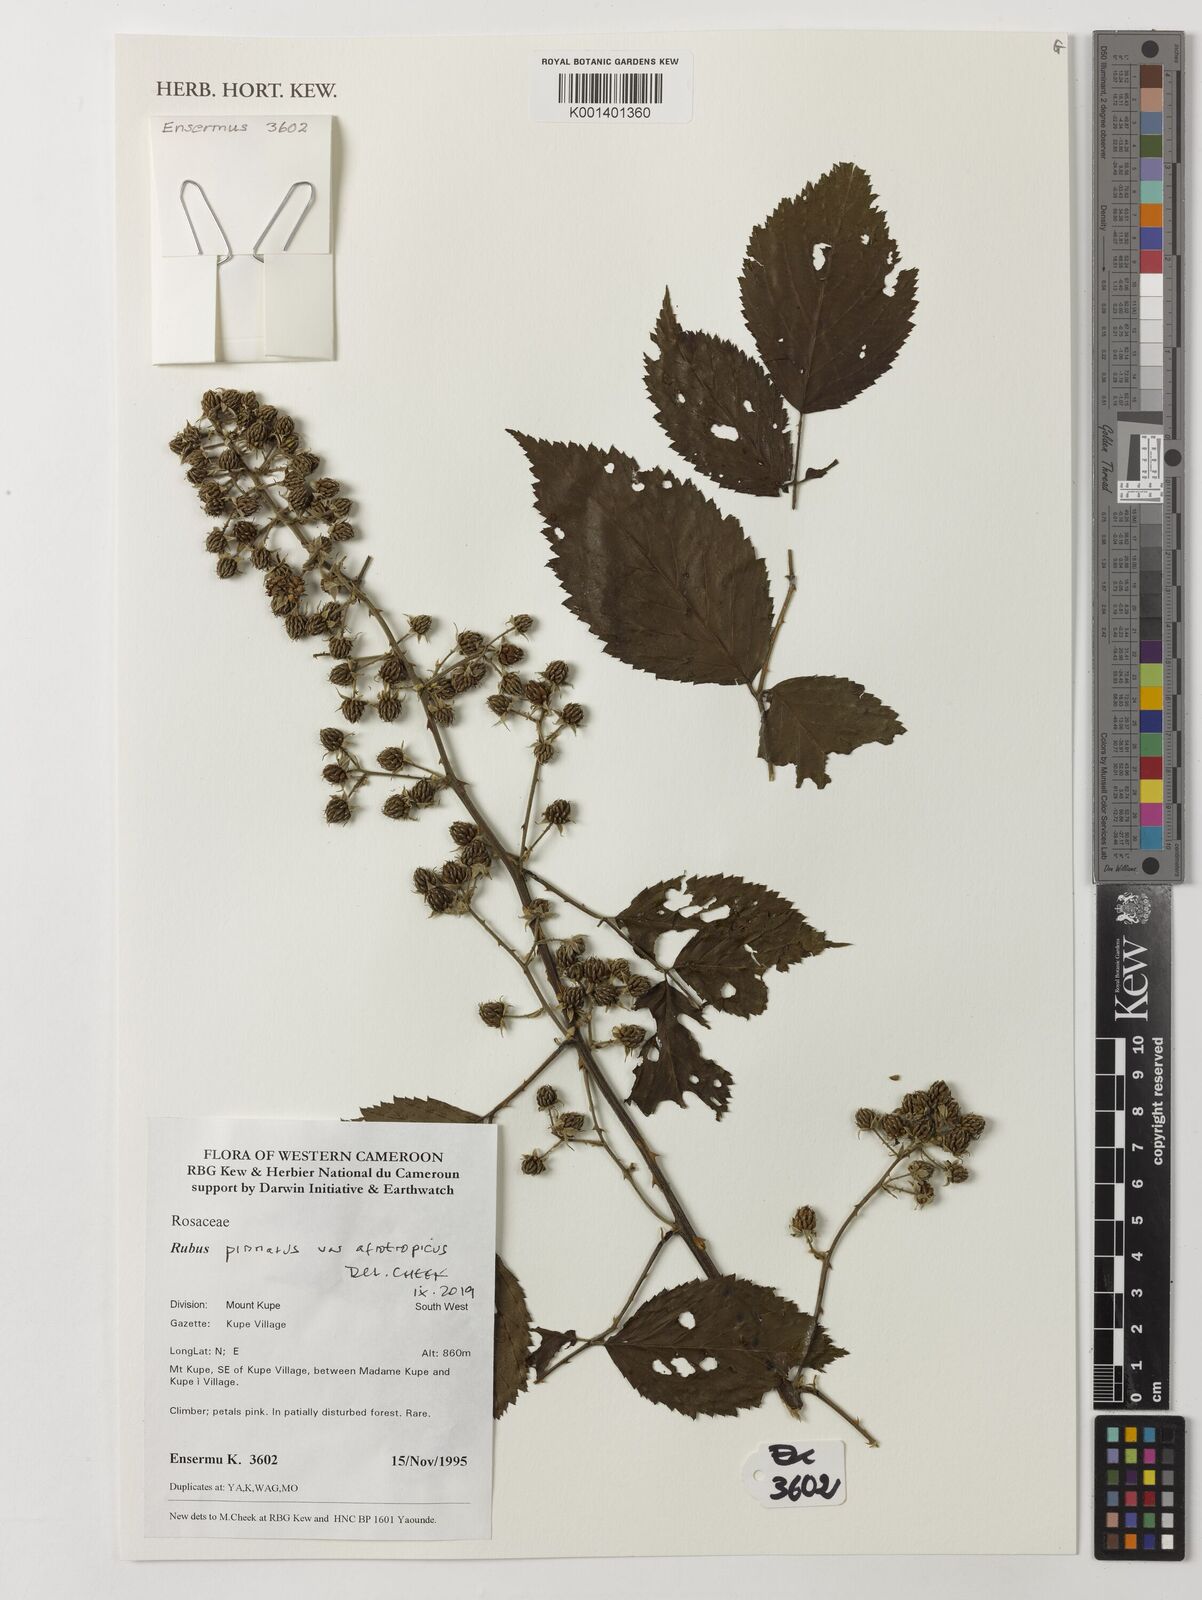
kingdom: Plantae
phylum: Tracheophyta
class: Magnoliopsida
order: Rosales
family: Rosaceae
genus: Rubus
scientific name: Rubus pinnatus
